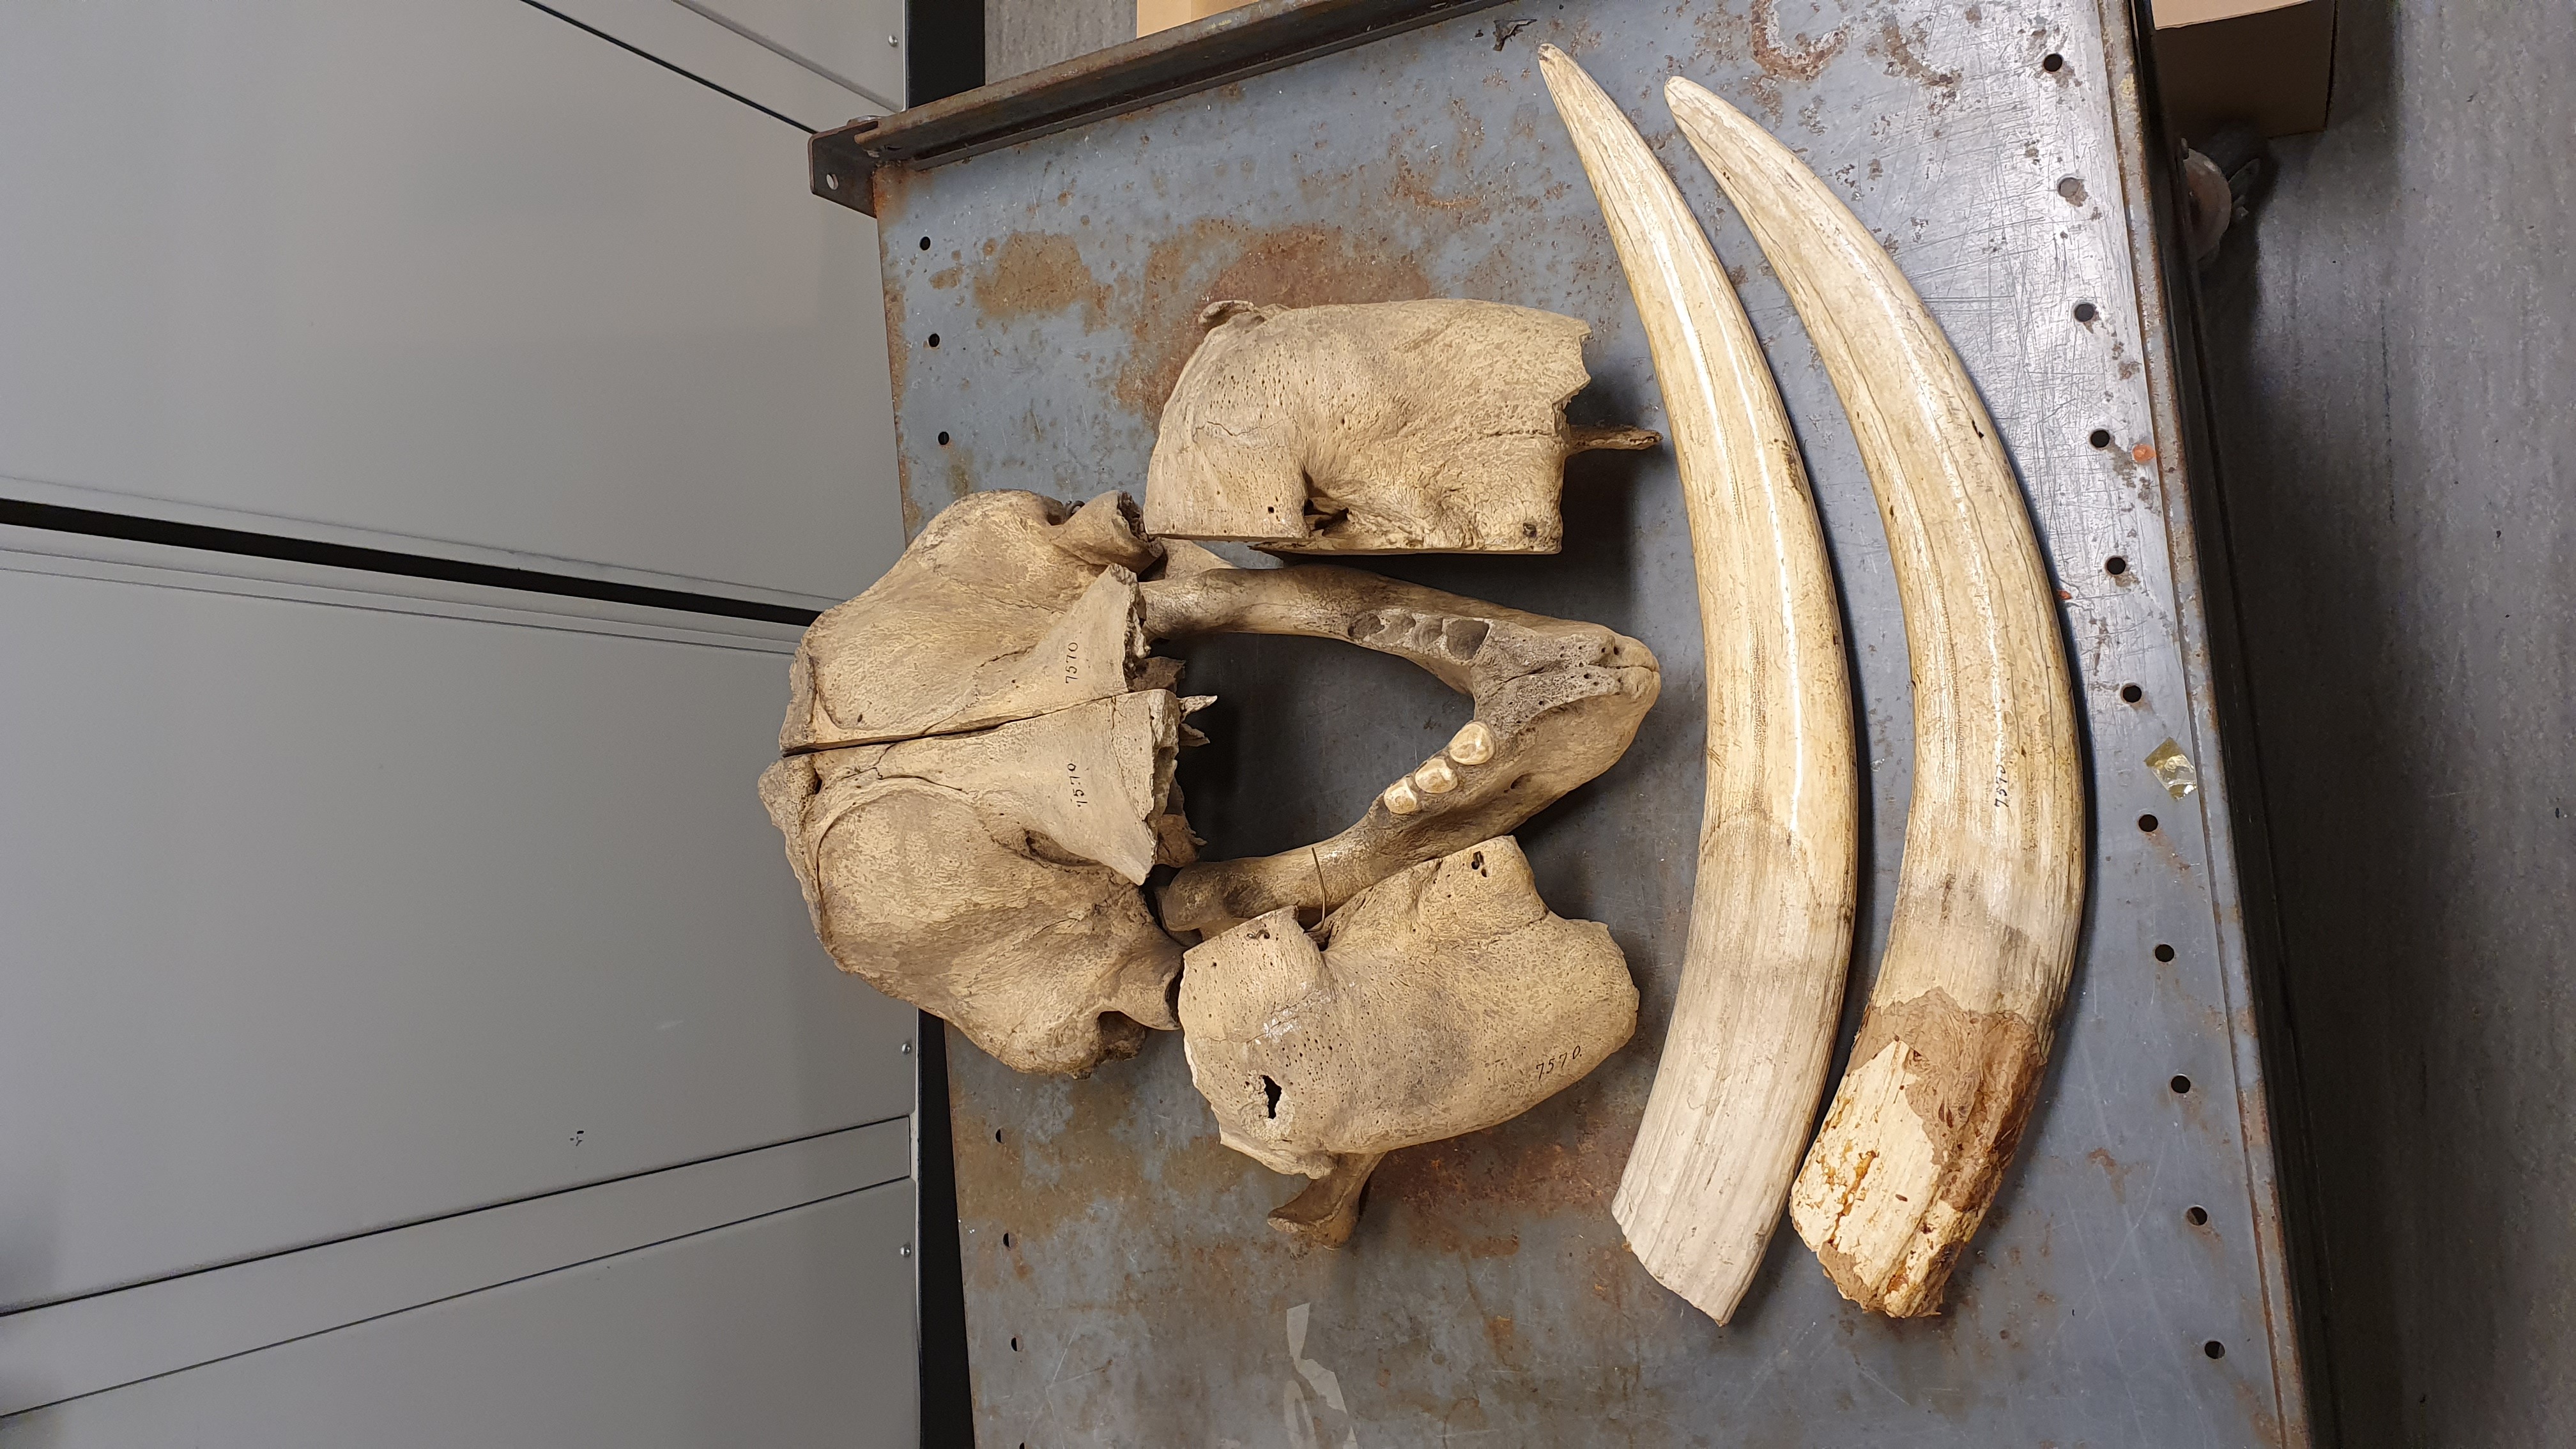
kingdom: Animalia
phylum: Chordata
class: Mammalia
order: Carnivora
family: Odobenidae
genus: Odobenus
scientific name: Odobenus rosmarus
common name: Walrus
